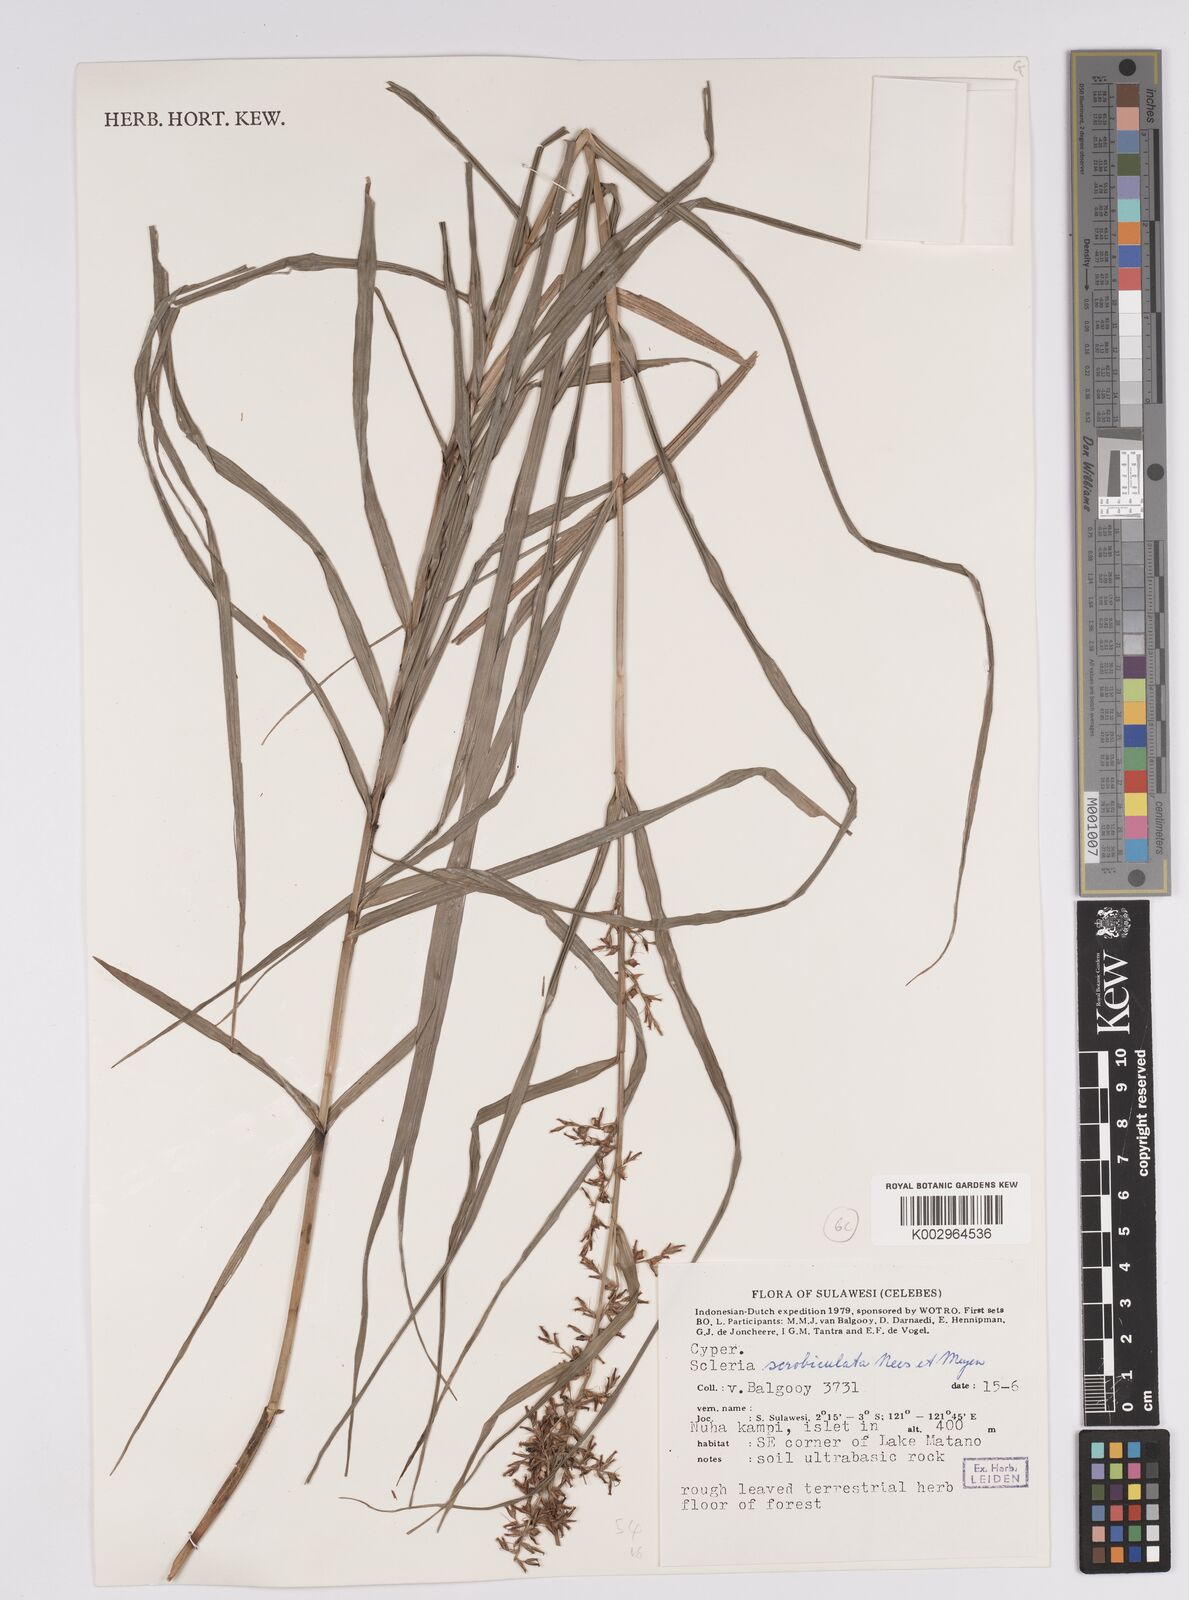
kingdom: Plantae
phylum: Tracheophyta
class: Liliopsida
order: Poales
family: Cyperaceae
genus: Scleria
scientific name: Scleria scrobiculata
